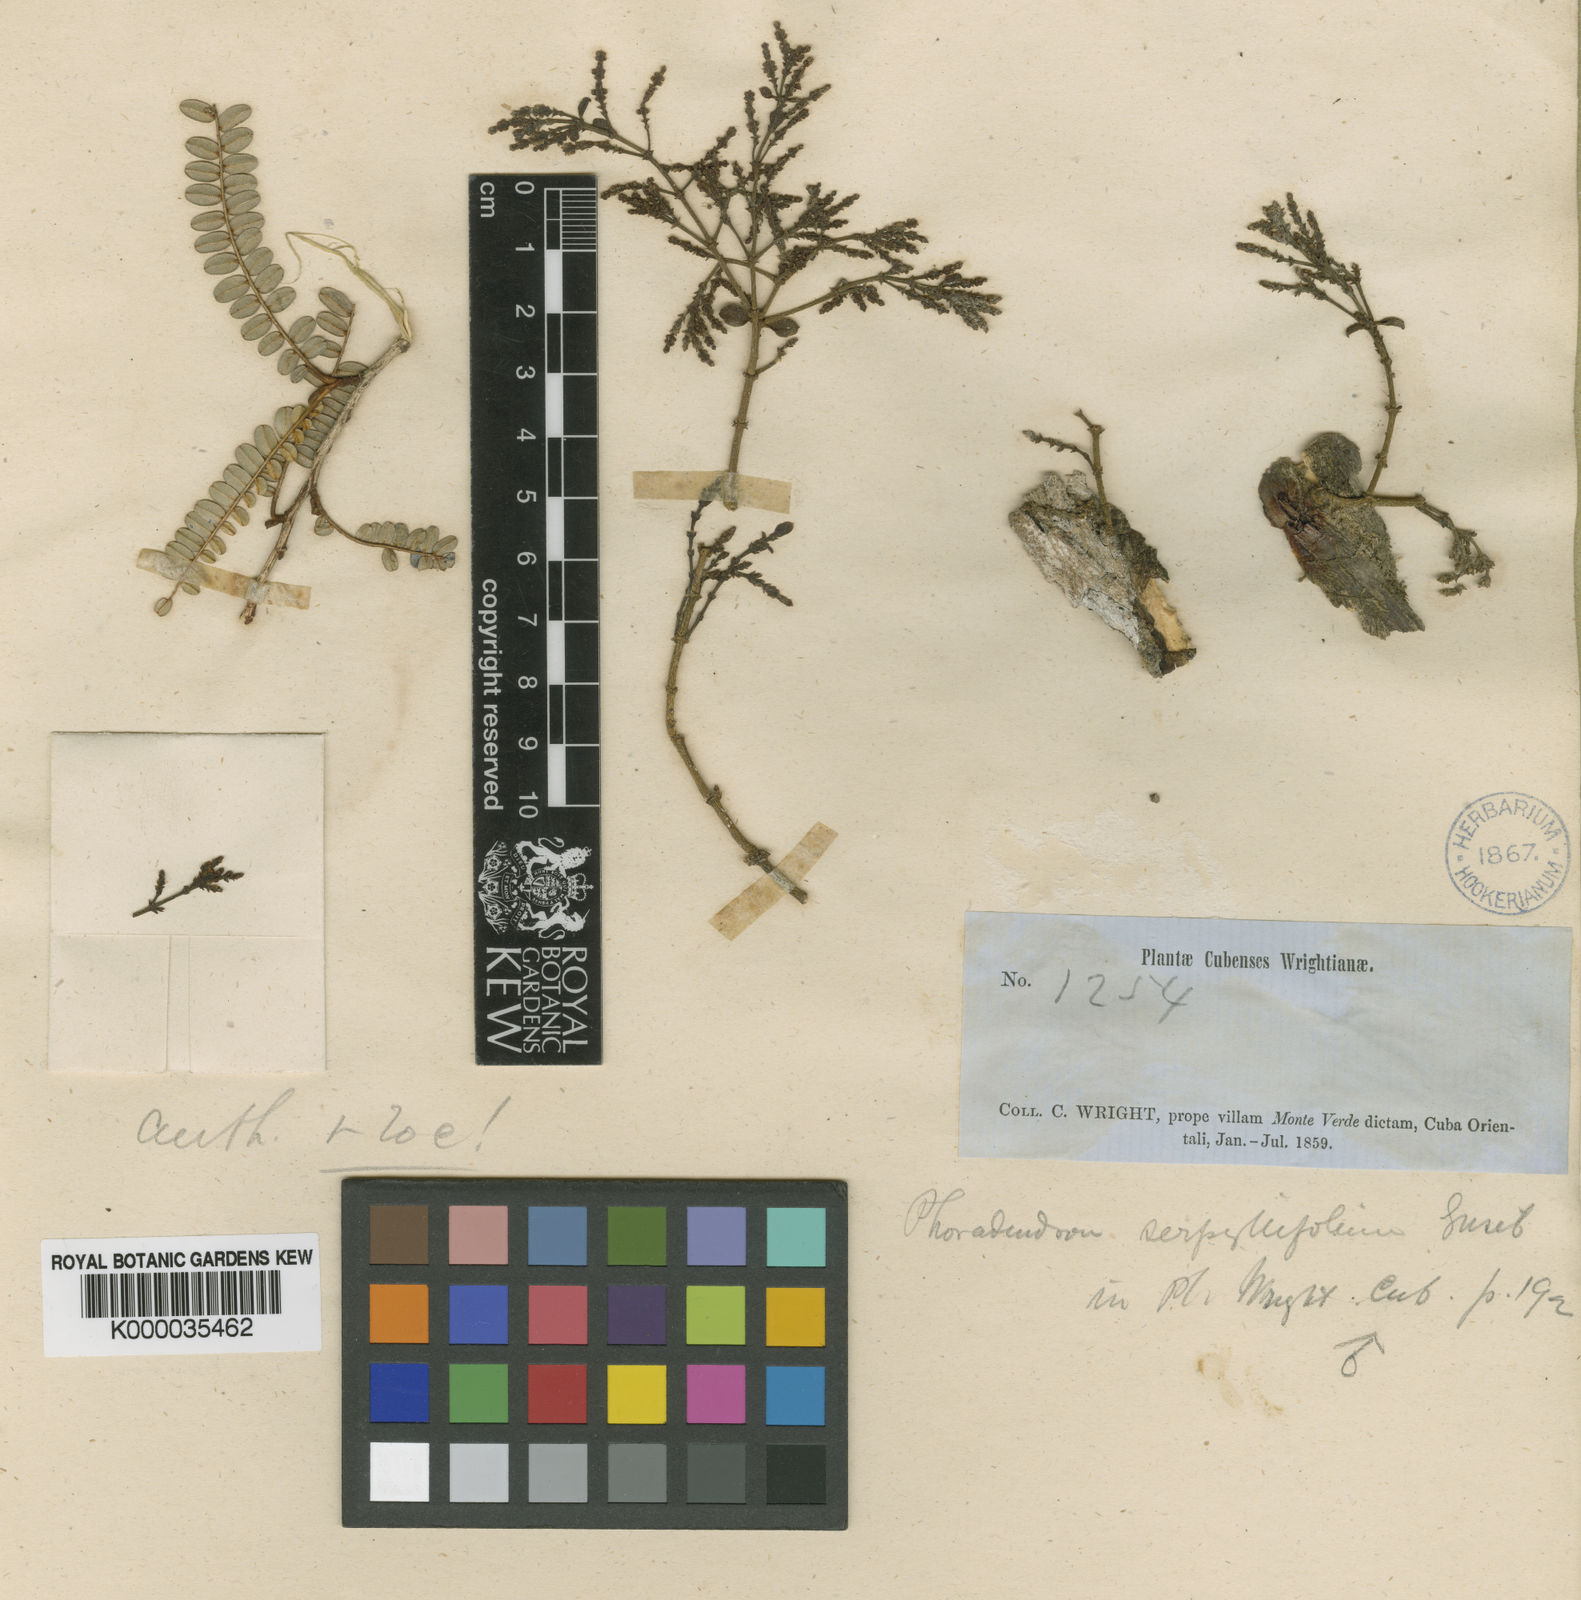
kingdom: Plantae
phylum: Tracheophyta
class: Magnoliopsida
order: Santalales
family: Viscaceae
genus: Dendrophthora
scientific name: Dendrophthora cupressoides
